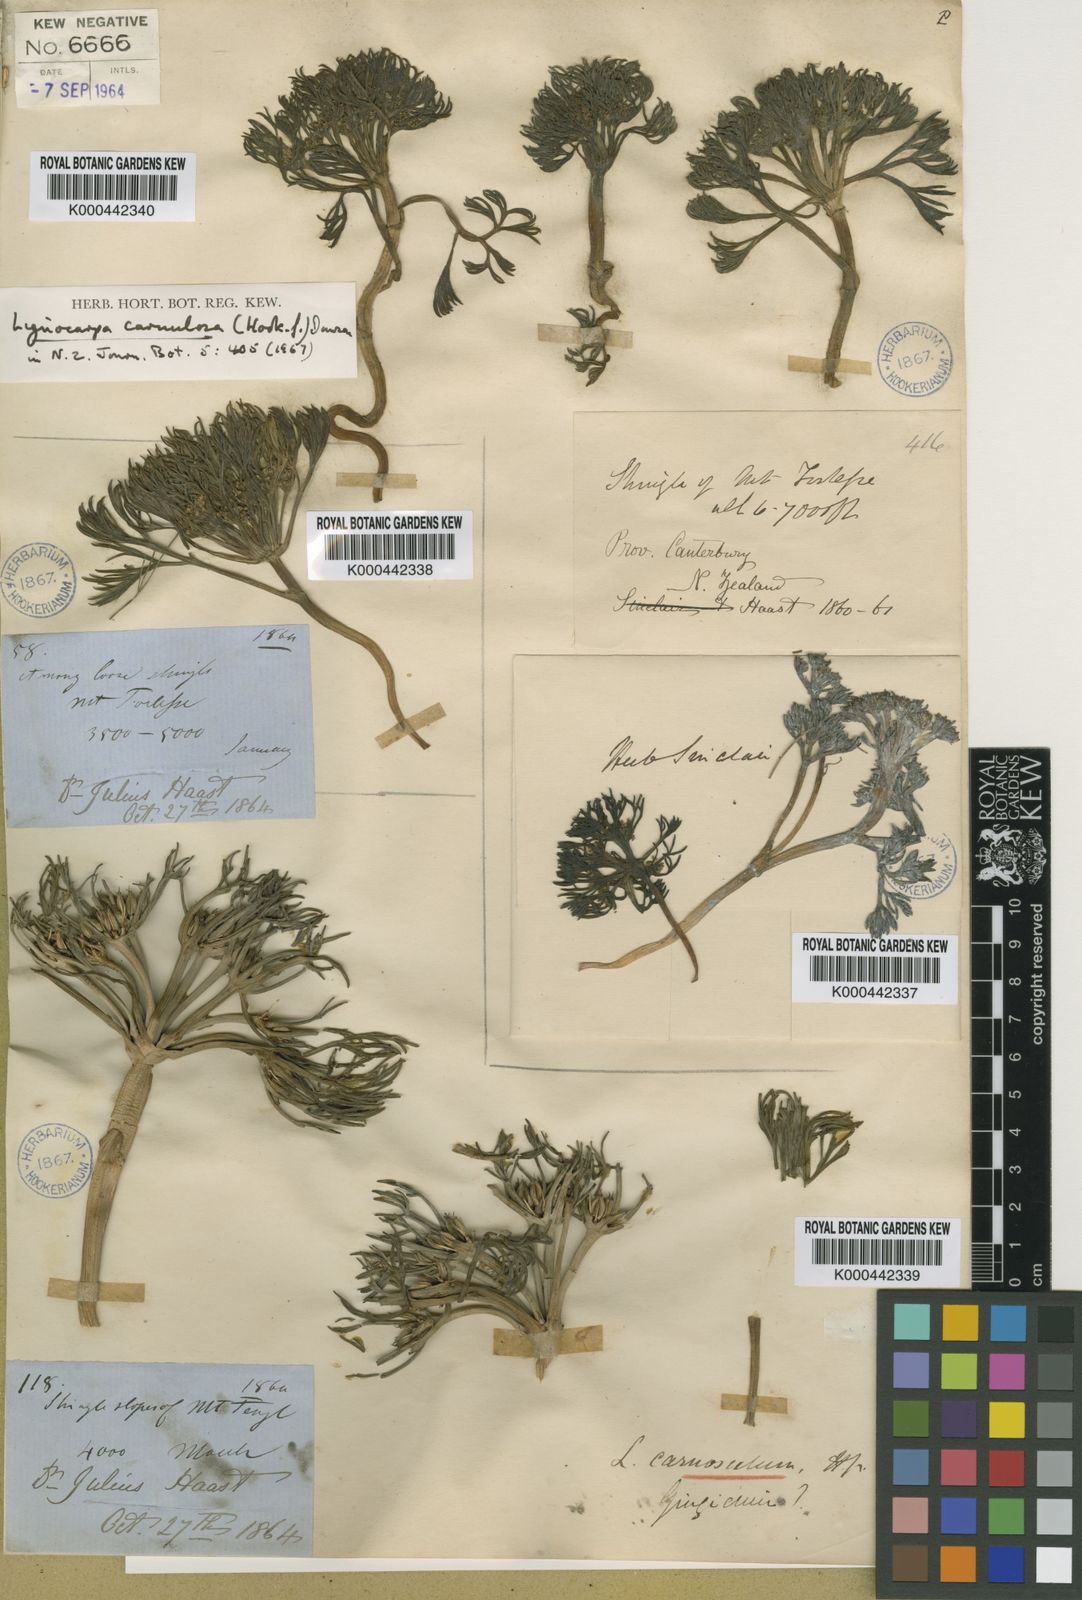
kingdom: Plantae
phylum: Tracheophyta
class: Magnoliopsida
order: Apiales
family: Apiaceae
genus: Lignocarpa
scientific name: Lignocarpa
